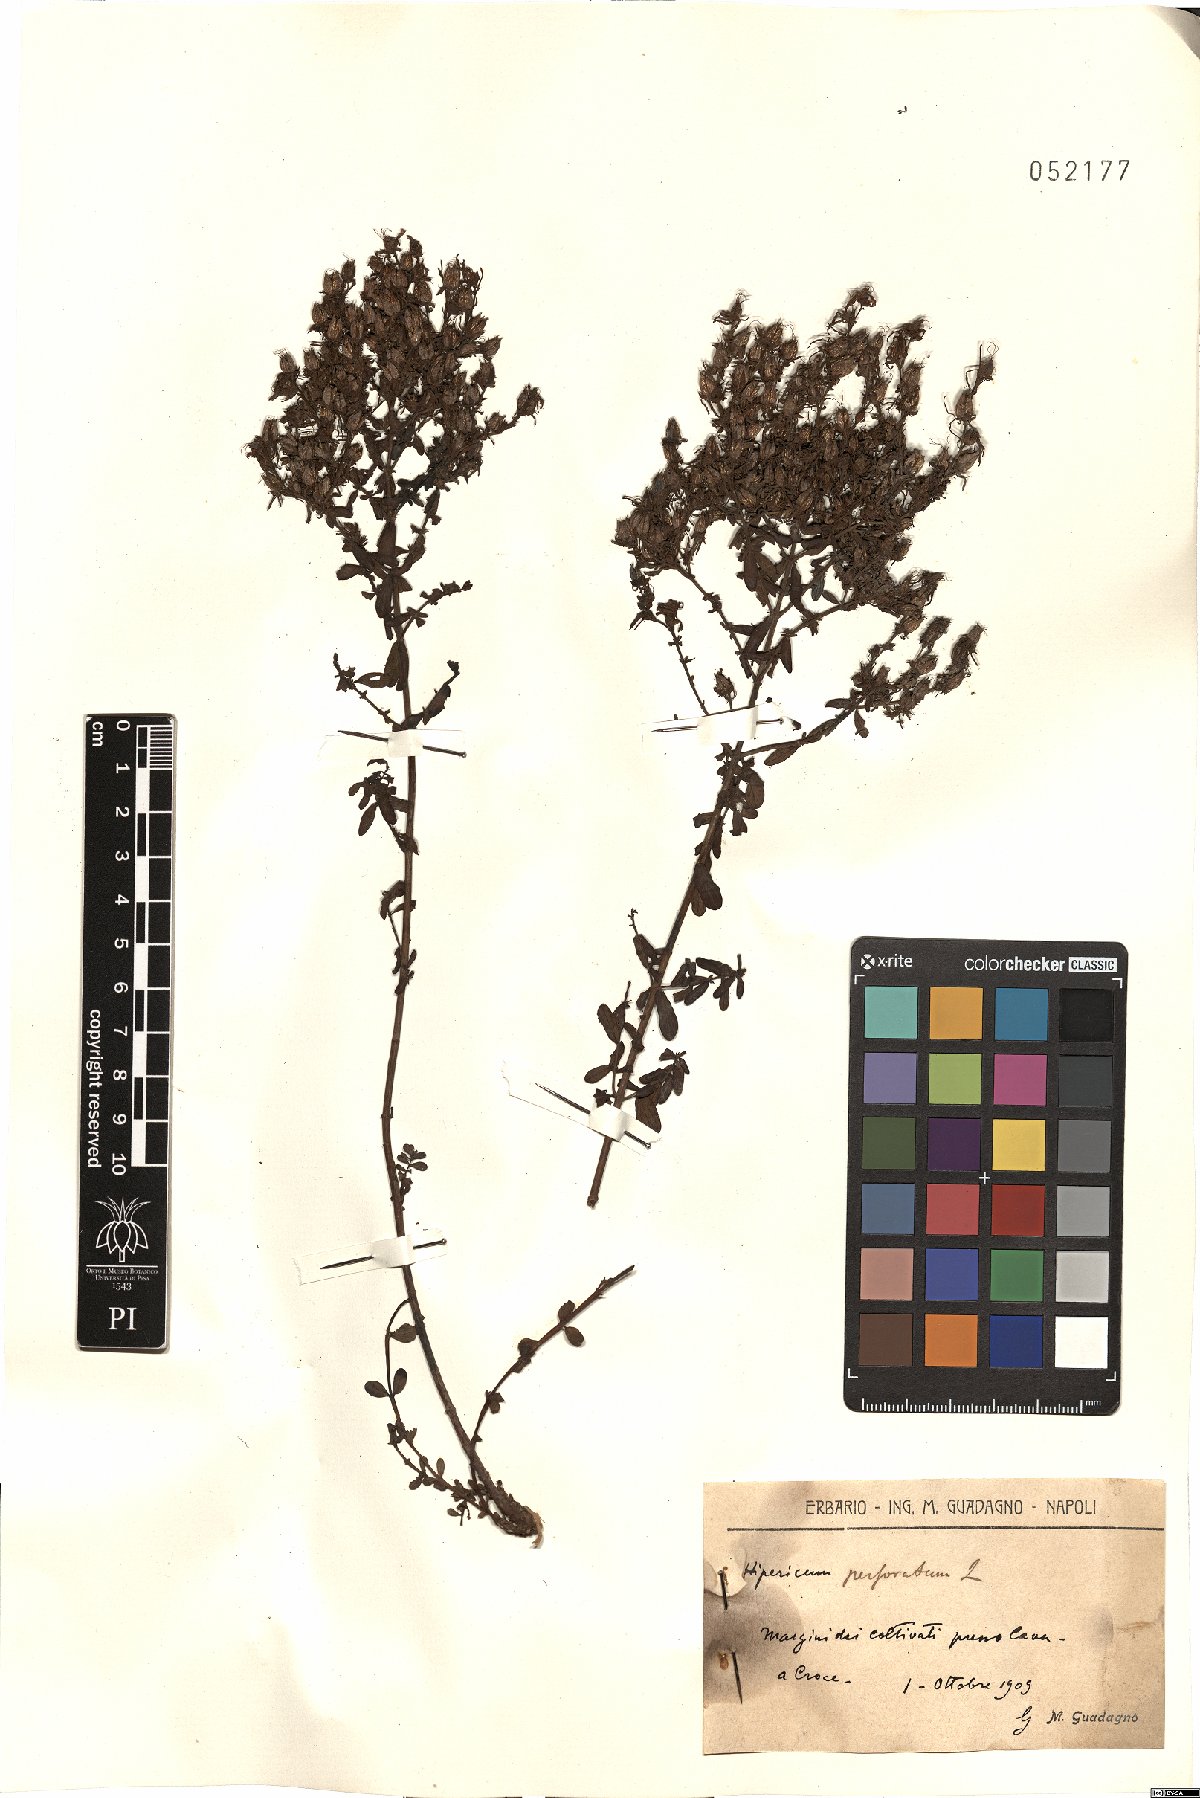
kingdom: Plantae
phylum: Tracheophyta
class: Magnoliopsida
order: Malpighiales
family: Hypericaceae
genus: Hypericum
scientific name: Hypericum perforatum
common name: Common st. johnswort
